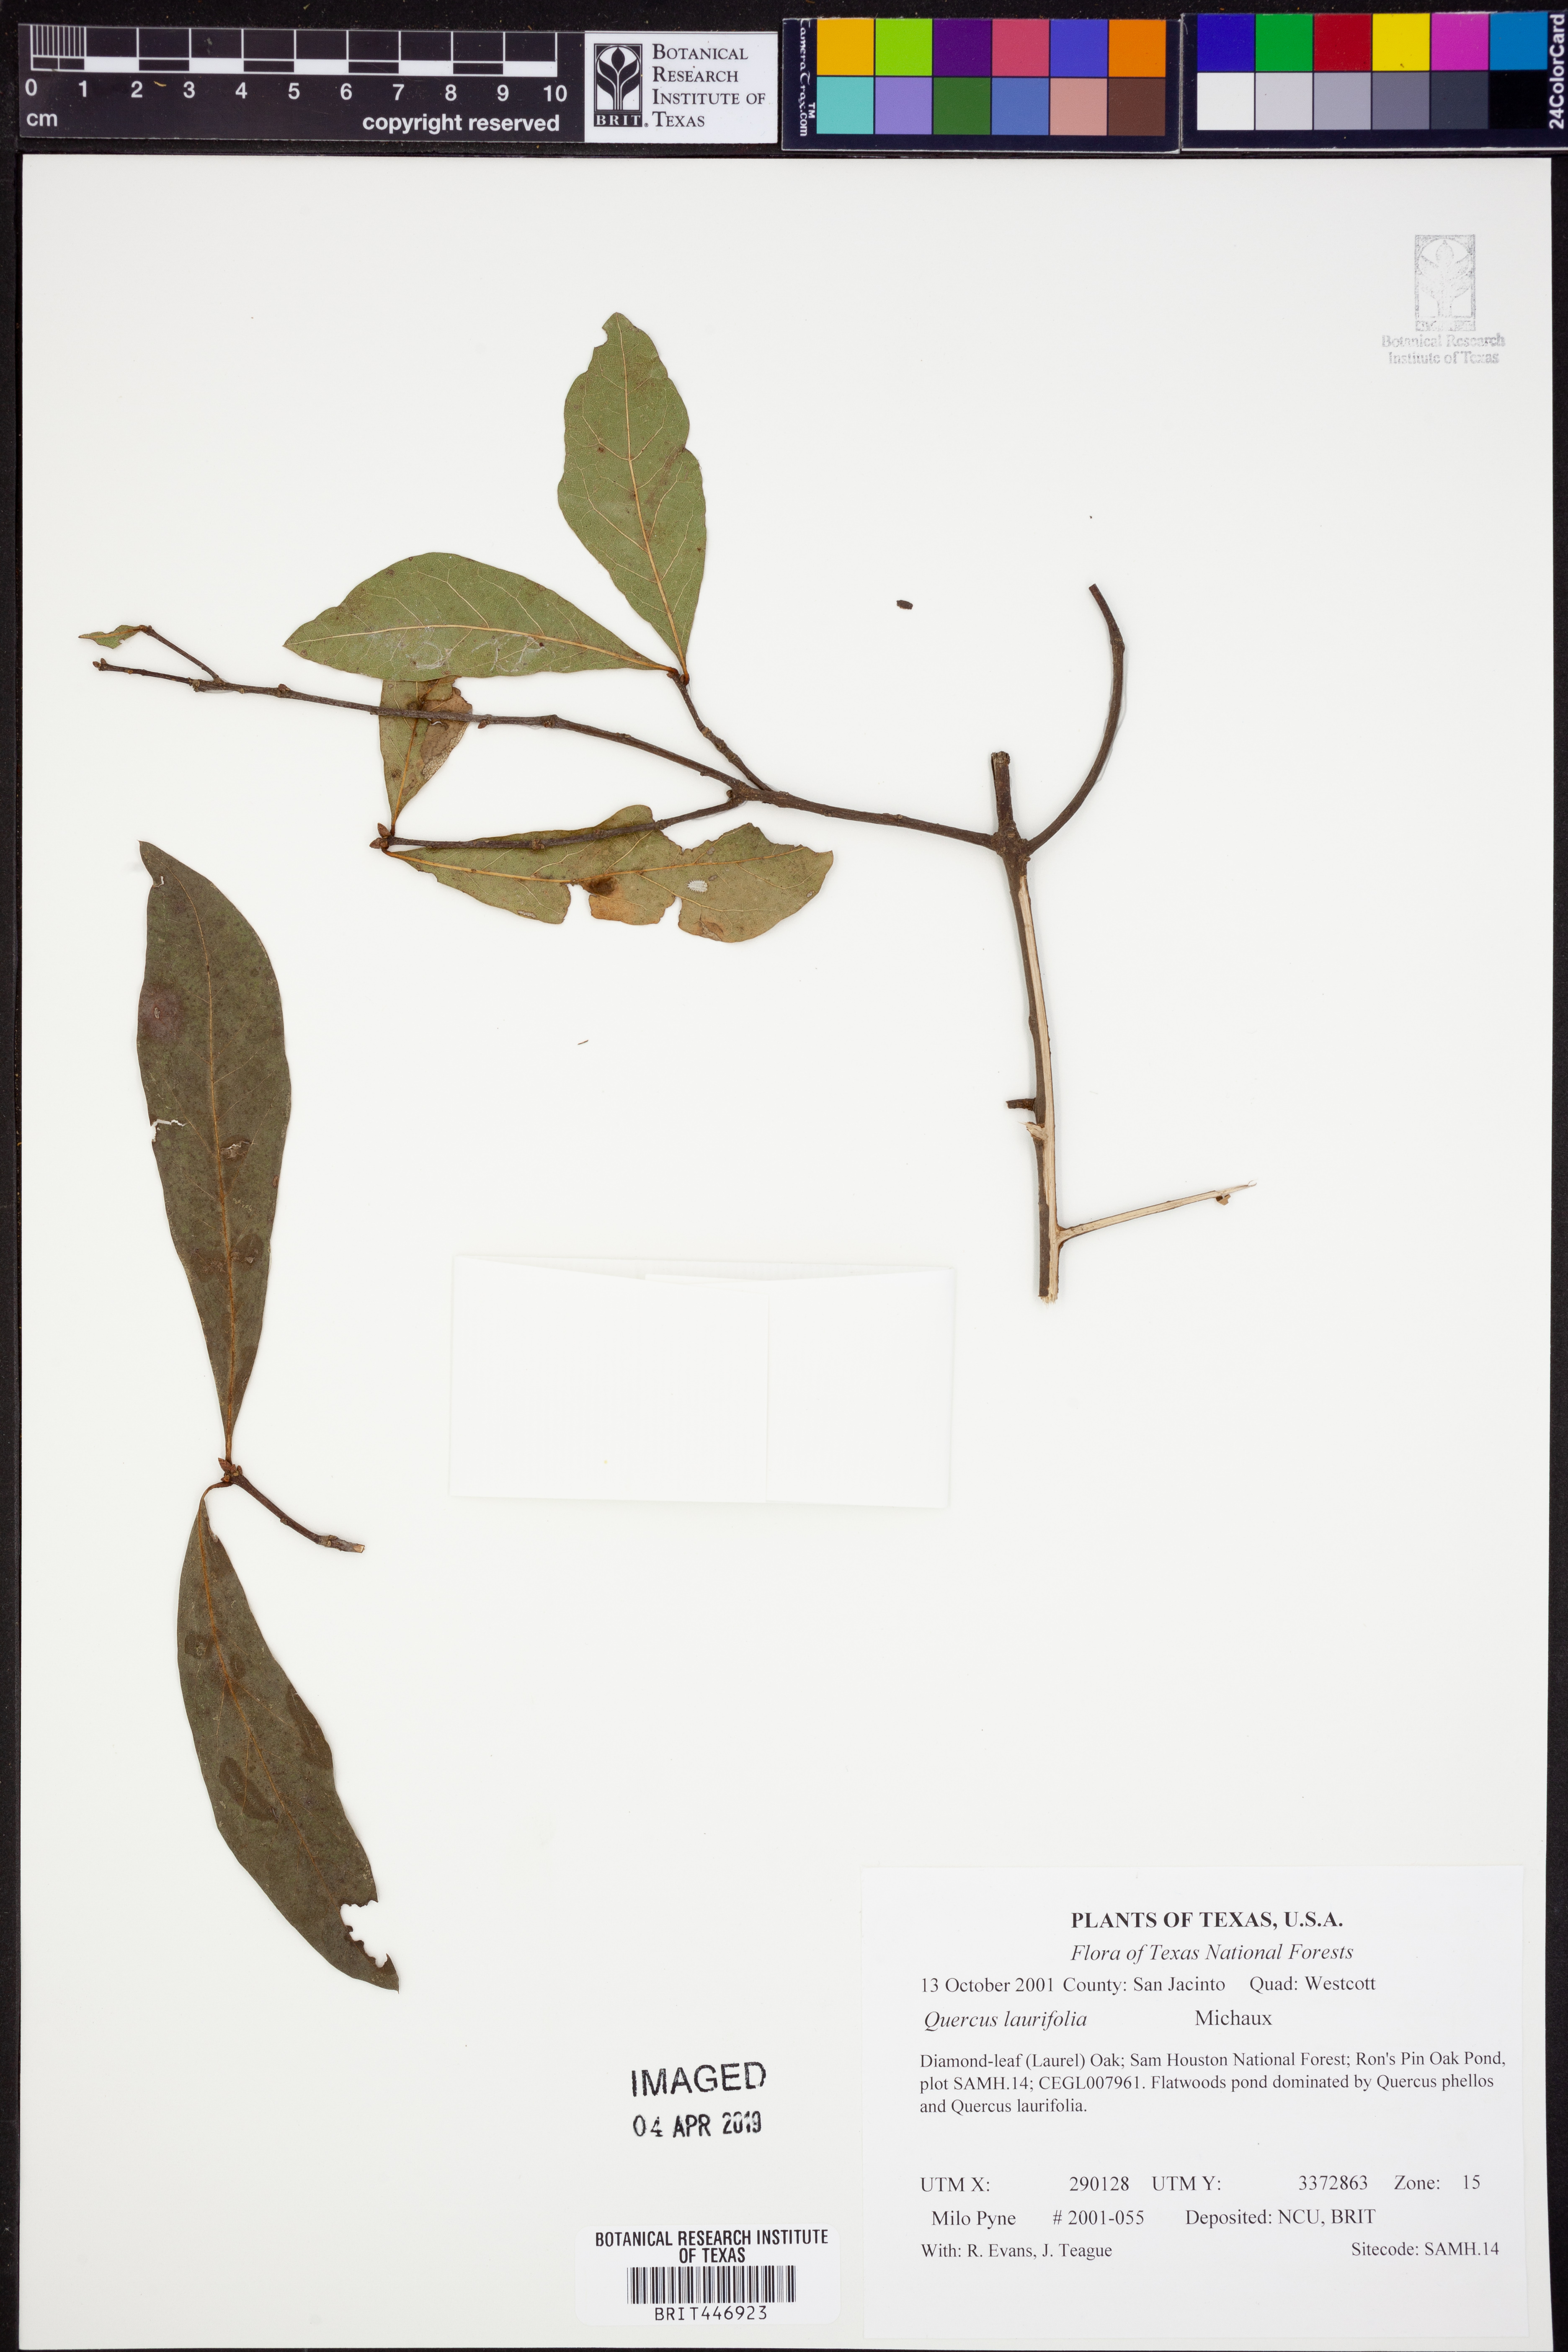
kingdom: Plantae
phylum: Tracheophyta
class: Magnoliopsida
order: Fagales
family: Fagaceae
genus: Quercus
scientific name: Quercus laurifolia
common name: Swamp laurel oak
